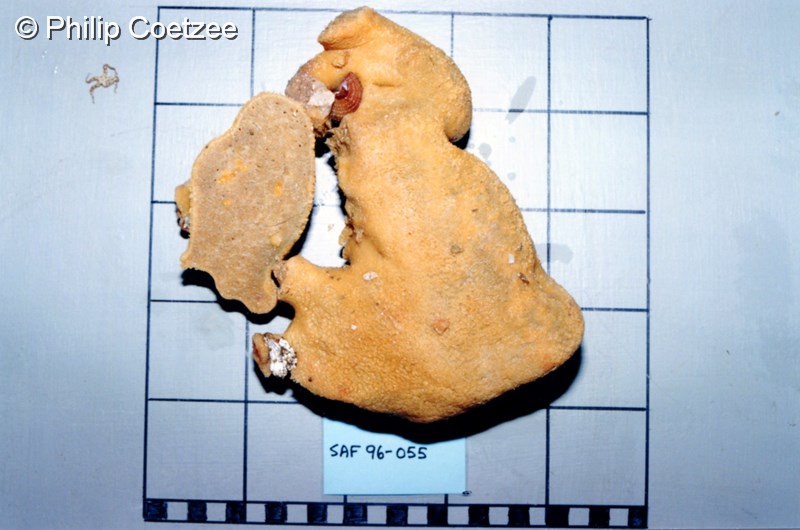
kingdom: Animalia
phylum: Porifera
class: Demospongiae
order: Poecilosclerida
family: Guitarridae
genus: Guitarra
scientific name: Guitarra flamenca
